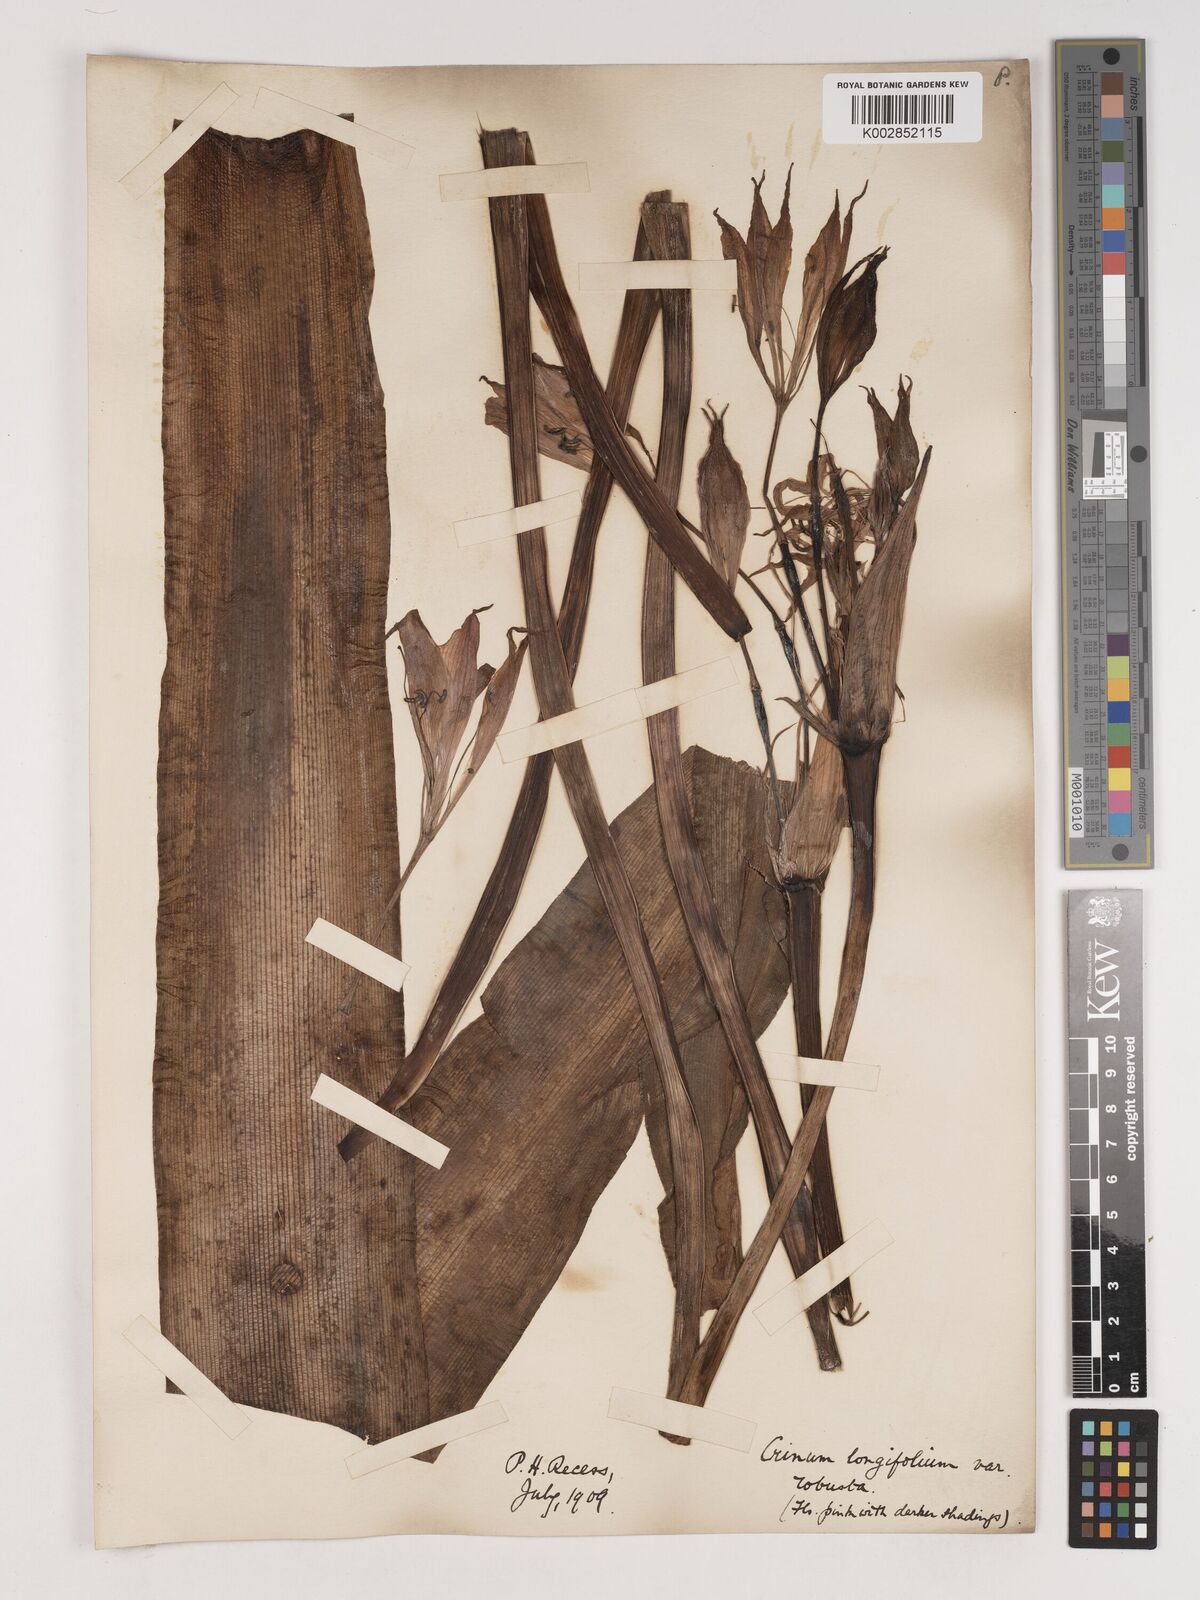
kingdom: Plantae
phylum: Tracheophyta
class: Liliopsida
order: Asparagales
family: Amaryllidaceae
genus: Ammocharis
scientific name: Ammocharis longifolia
